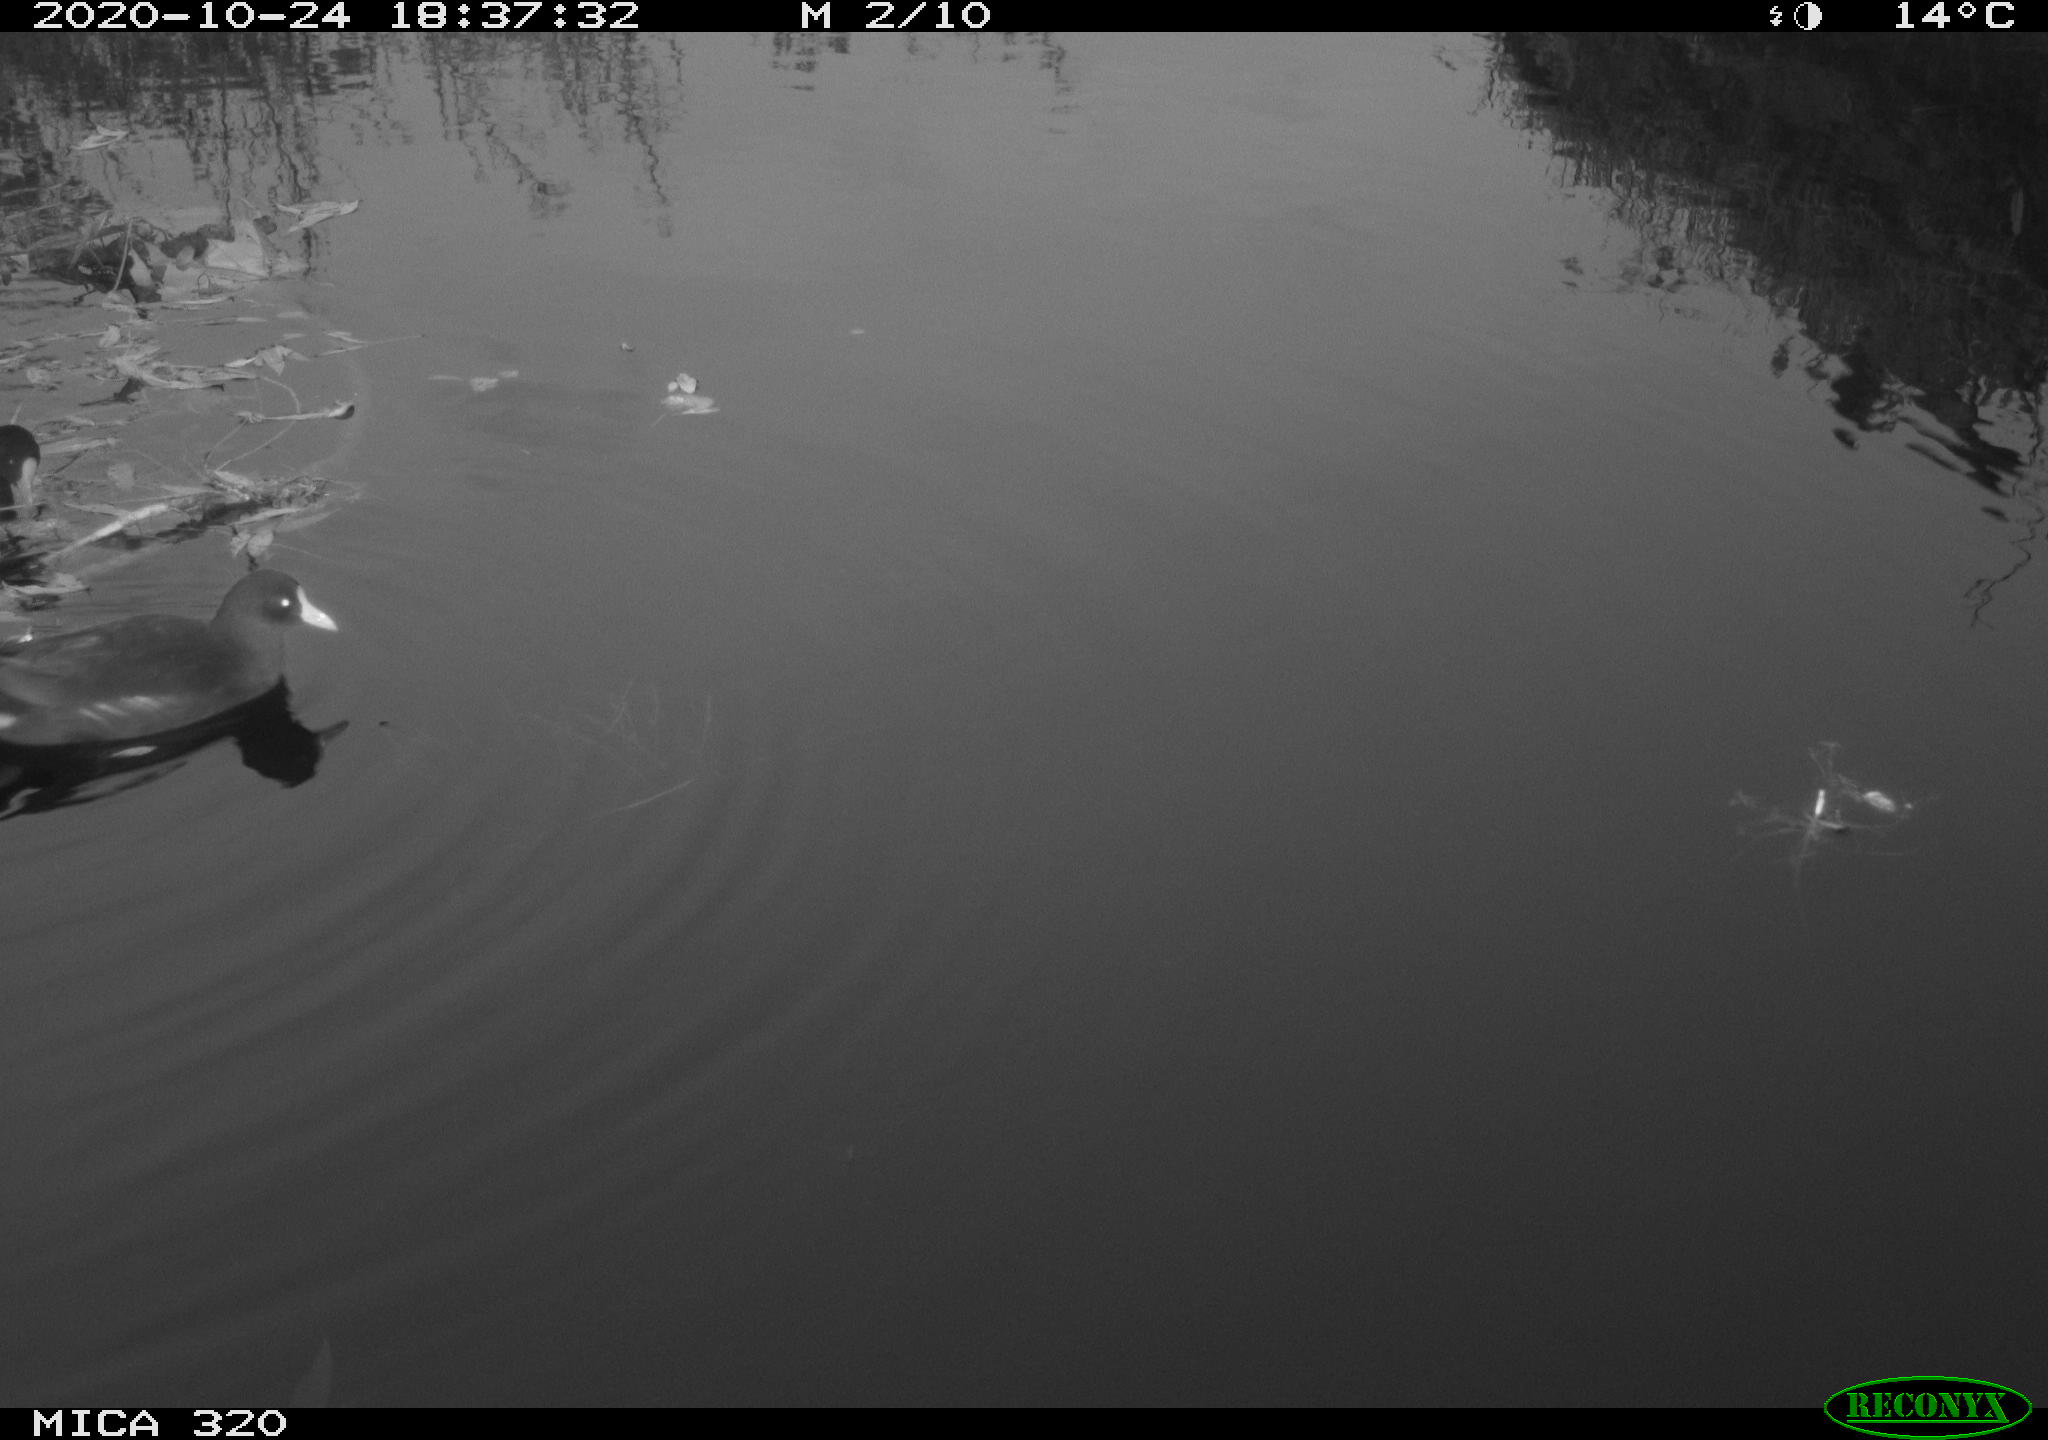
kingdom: Animalia
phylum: Chordata
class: Aves
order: Gruiformes
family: Rallidae
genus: Gallinula
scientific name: Gallinula chloropus
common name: Common moorhen
